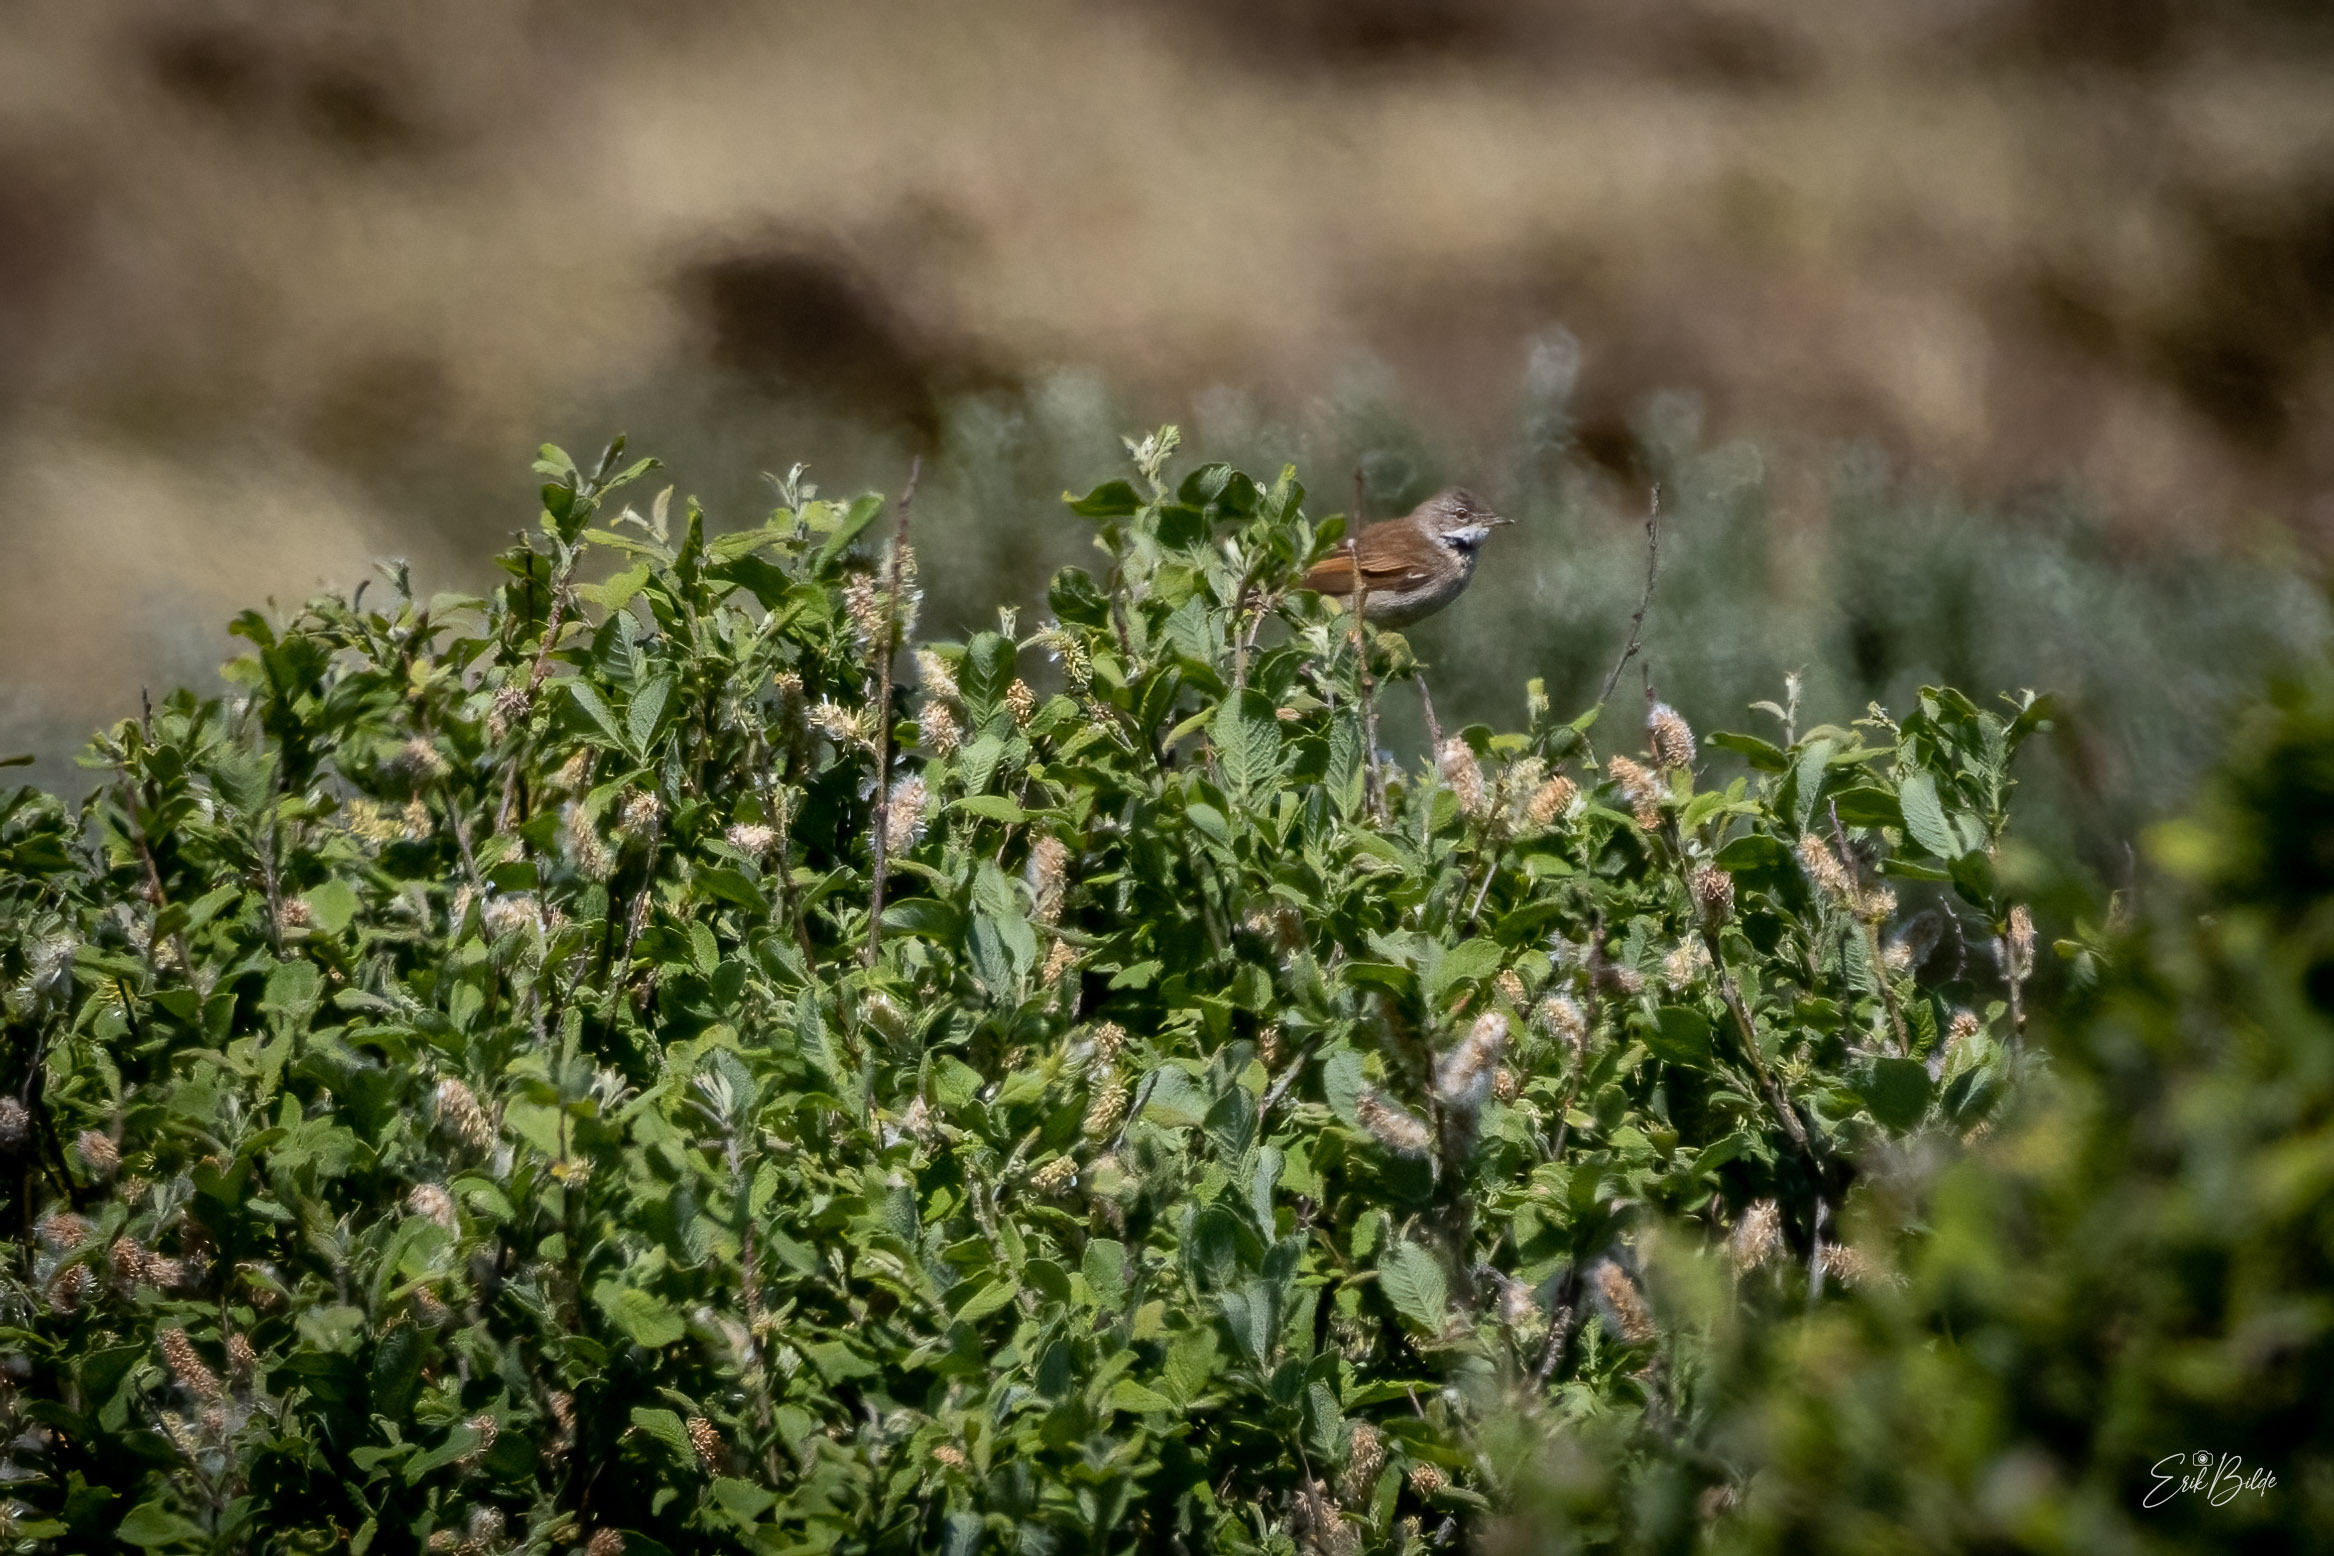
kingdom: Animalia
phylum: Chordata
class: Aves
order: Passeriformes
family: Sylviidae
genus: Sylvia
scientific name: Sylvia communis
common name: Tornsanger
